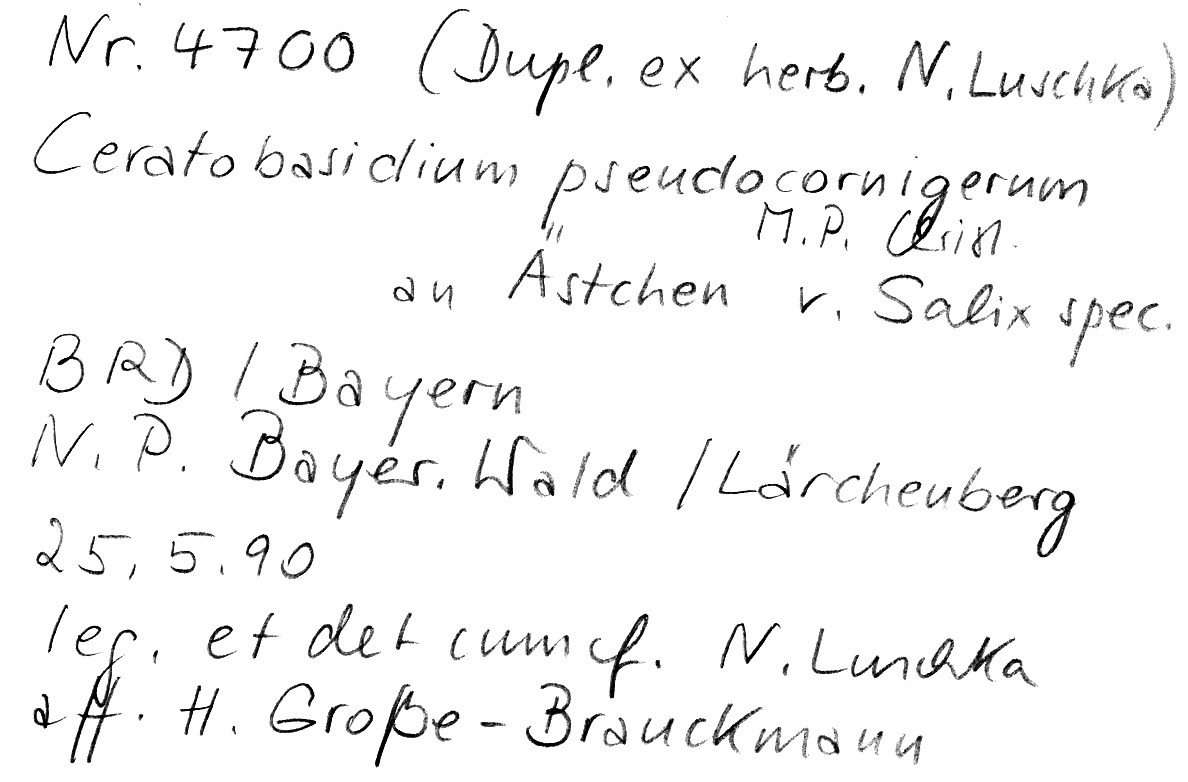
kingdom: Fungi
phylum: Basidiomycota
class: Agaricomycetes
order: Cantharellales
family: Ceratobasidiaceae
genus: Rhizoctonia
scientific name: Rhizoctonia pseudocornigera
